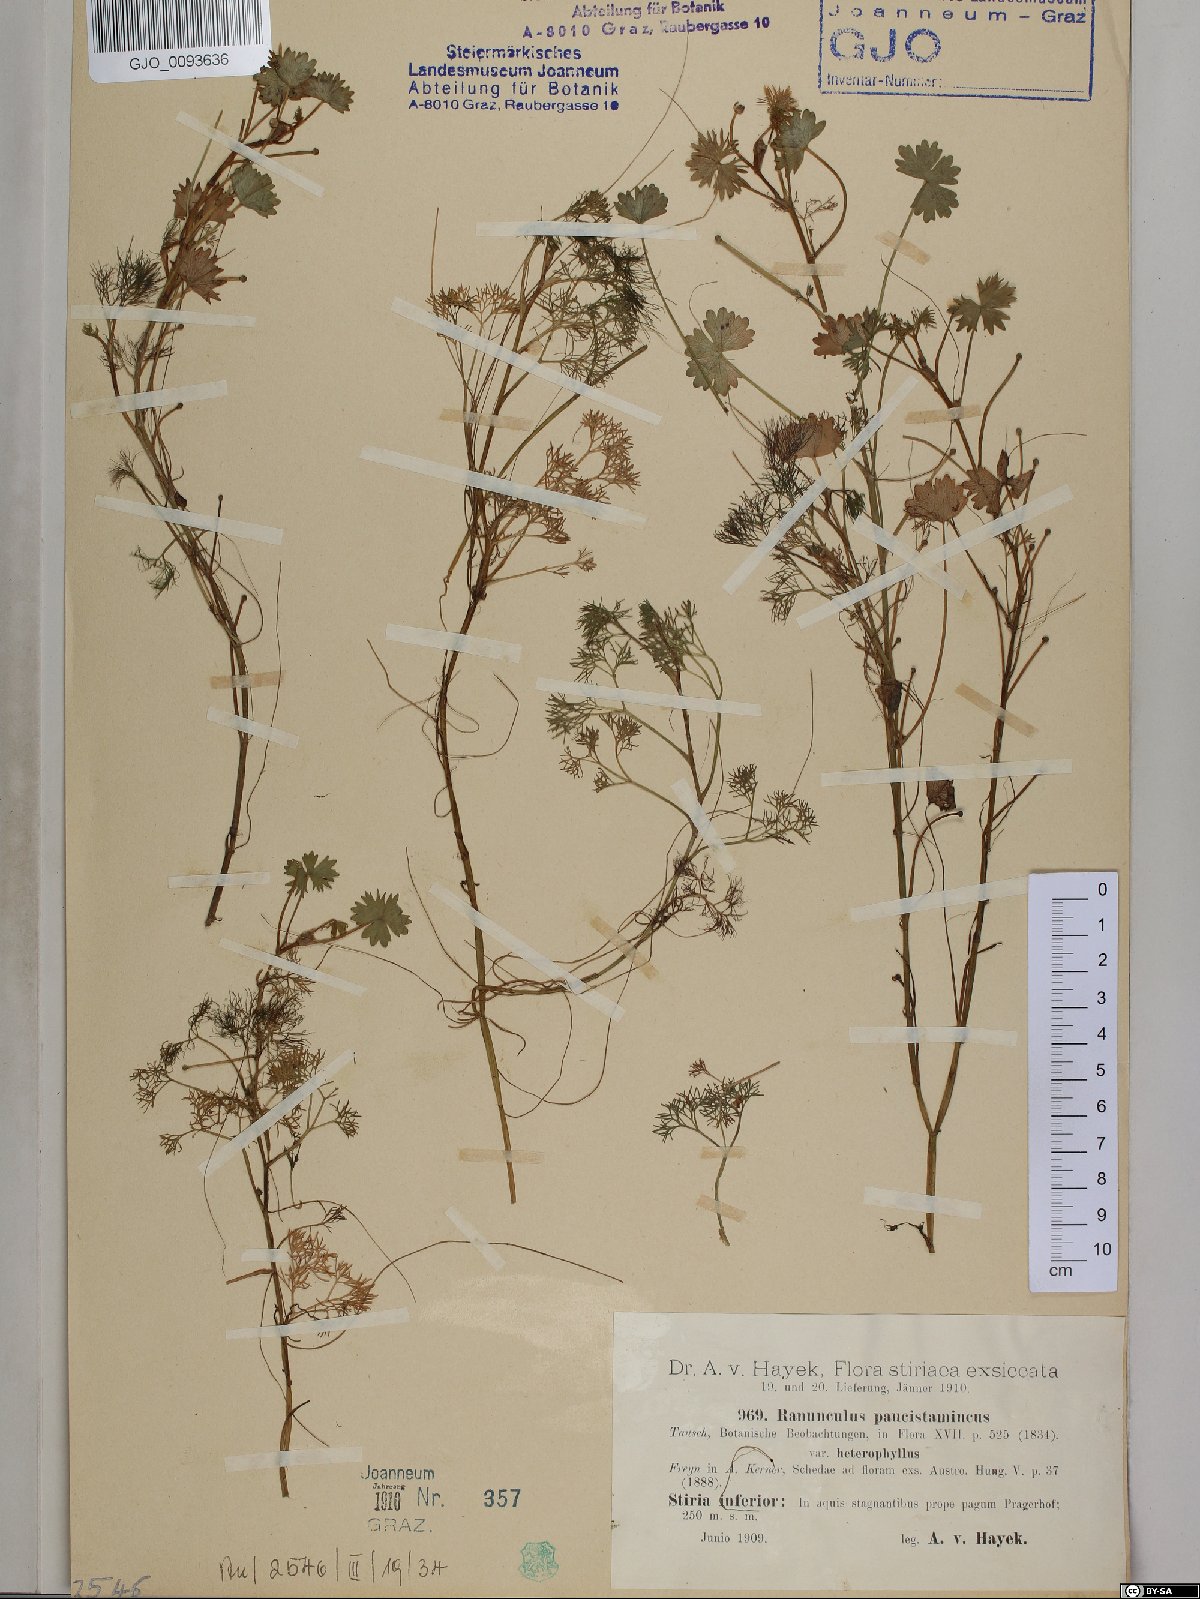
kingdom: Plantae
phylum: Tracheophyta
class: Magnoliopsida
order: Ranunculales
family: Ranunculaceae
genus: Ranunculus
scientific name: Ranunculus
